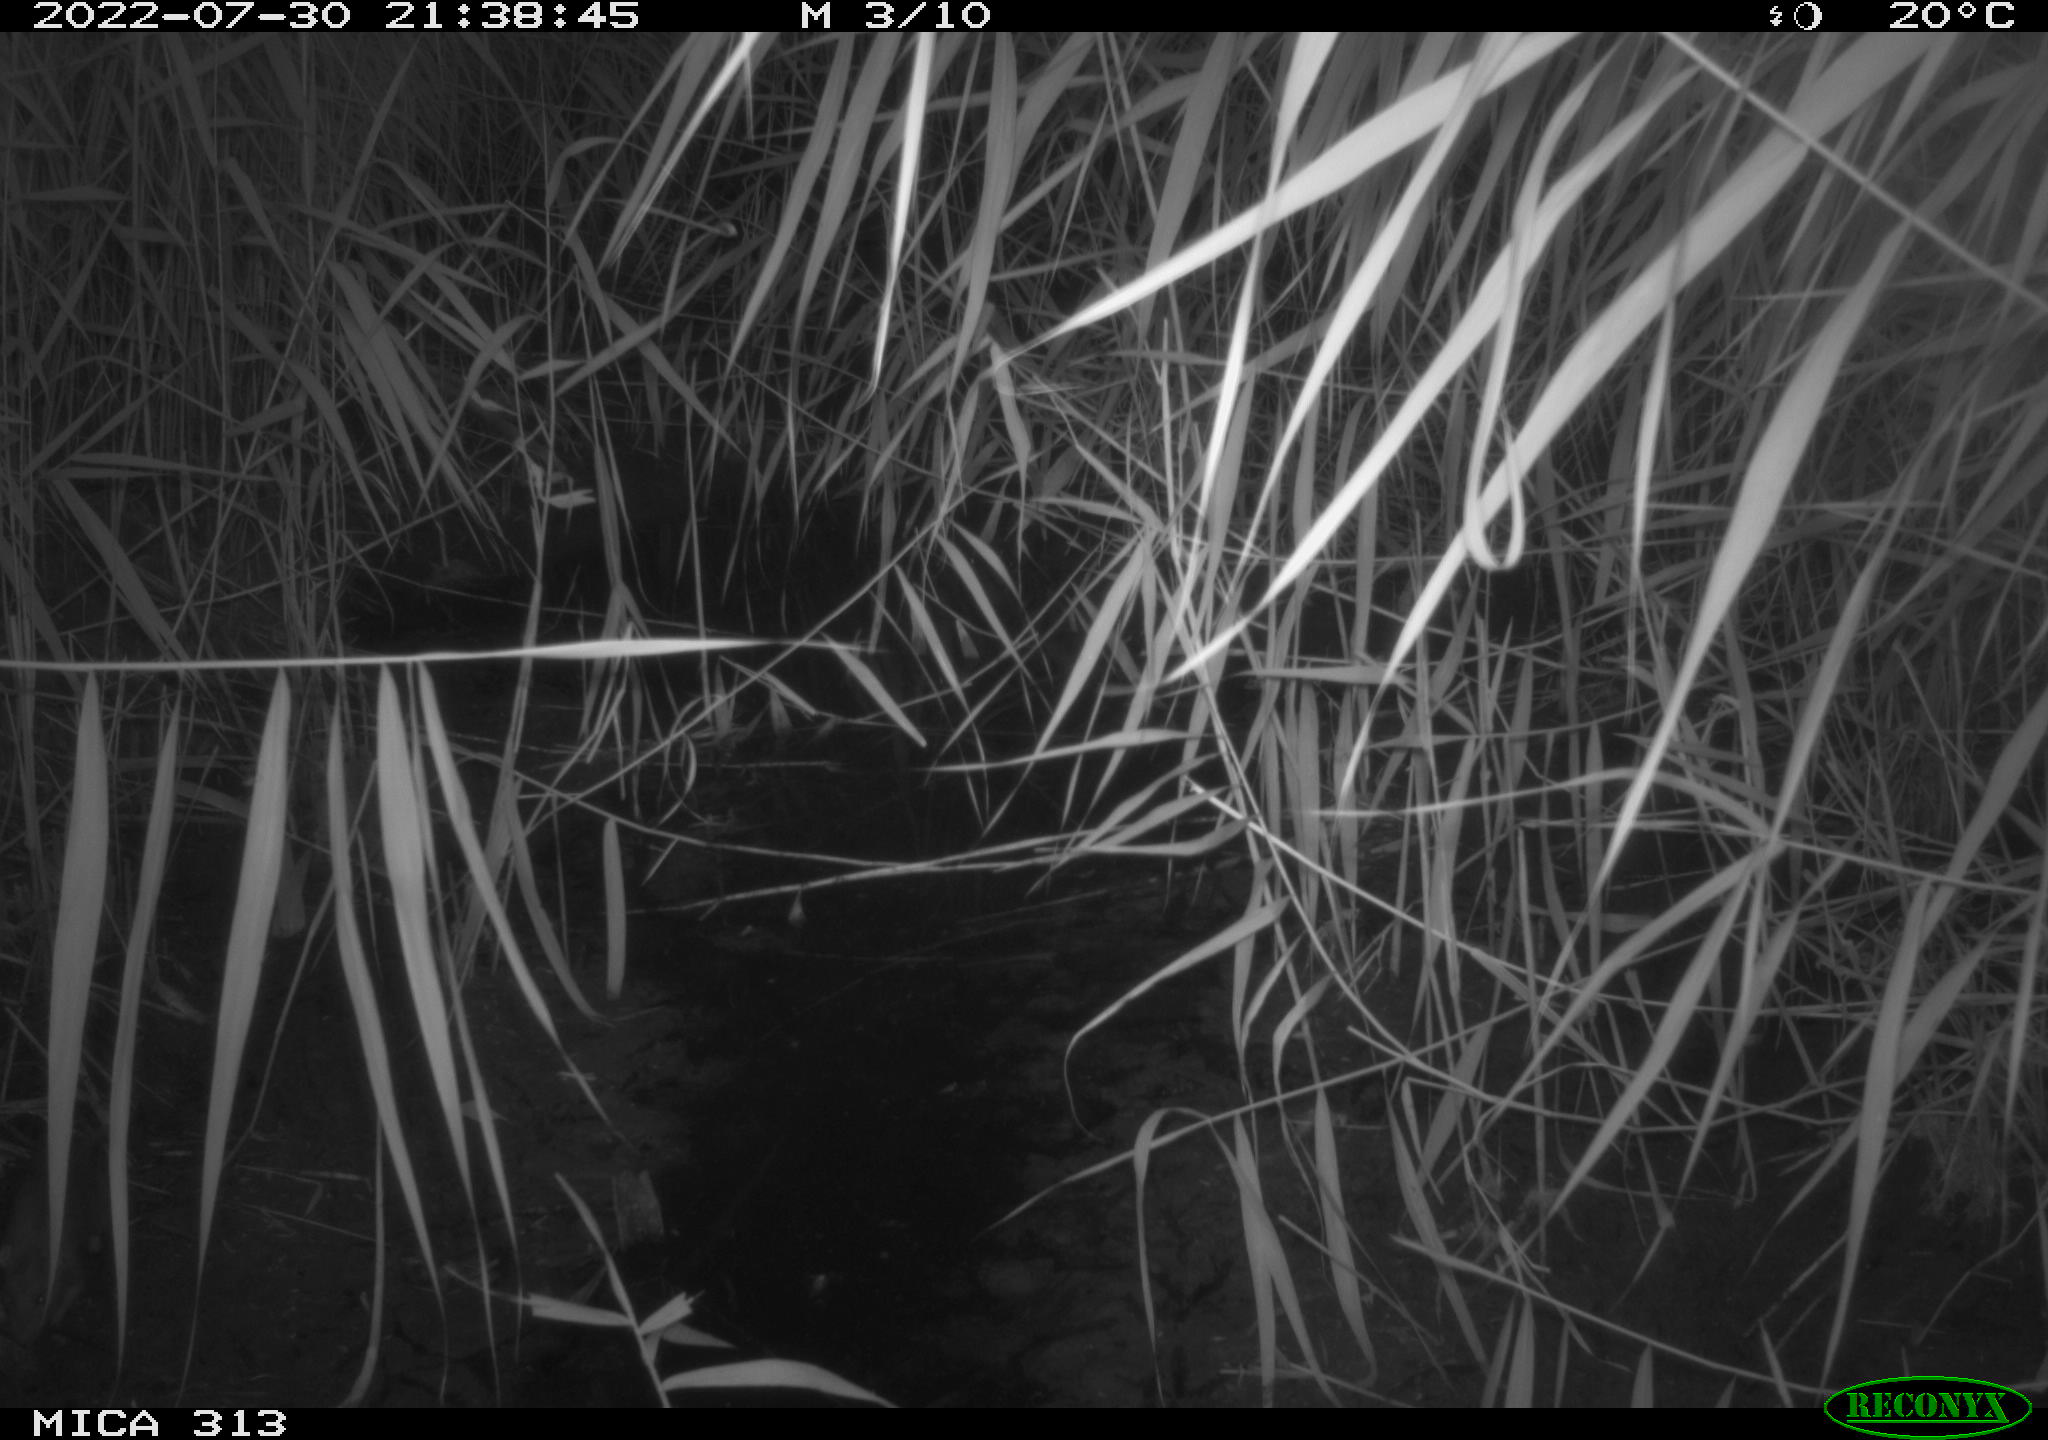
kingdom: Animalia
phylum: Chordata
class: Mammalia
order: Carnivora
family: Mustelidae
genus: Martes
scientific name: Martes foina
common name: Beech marten
